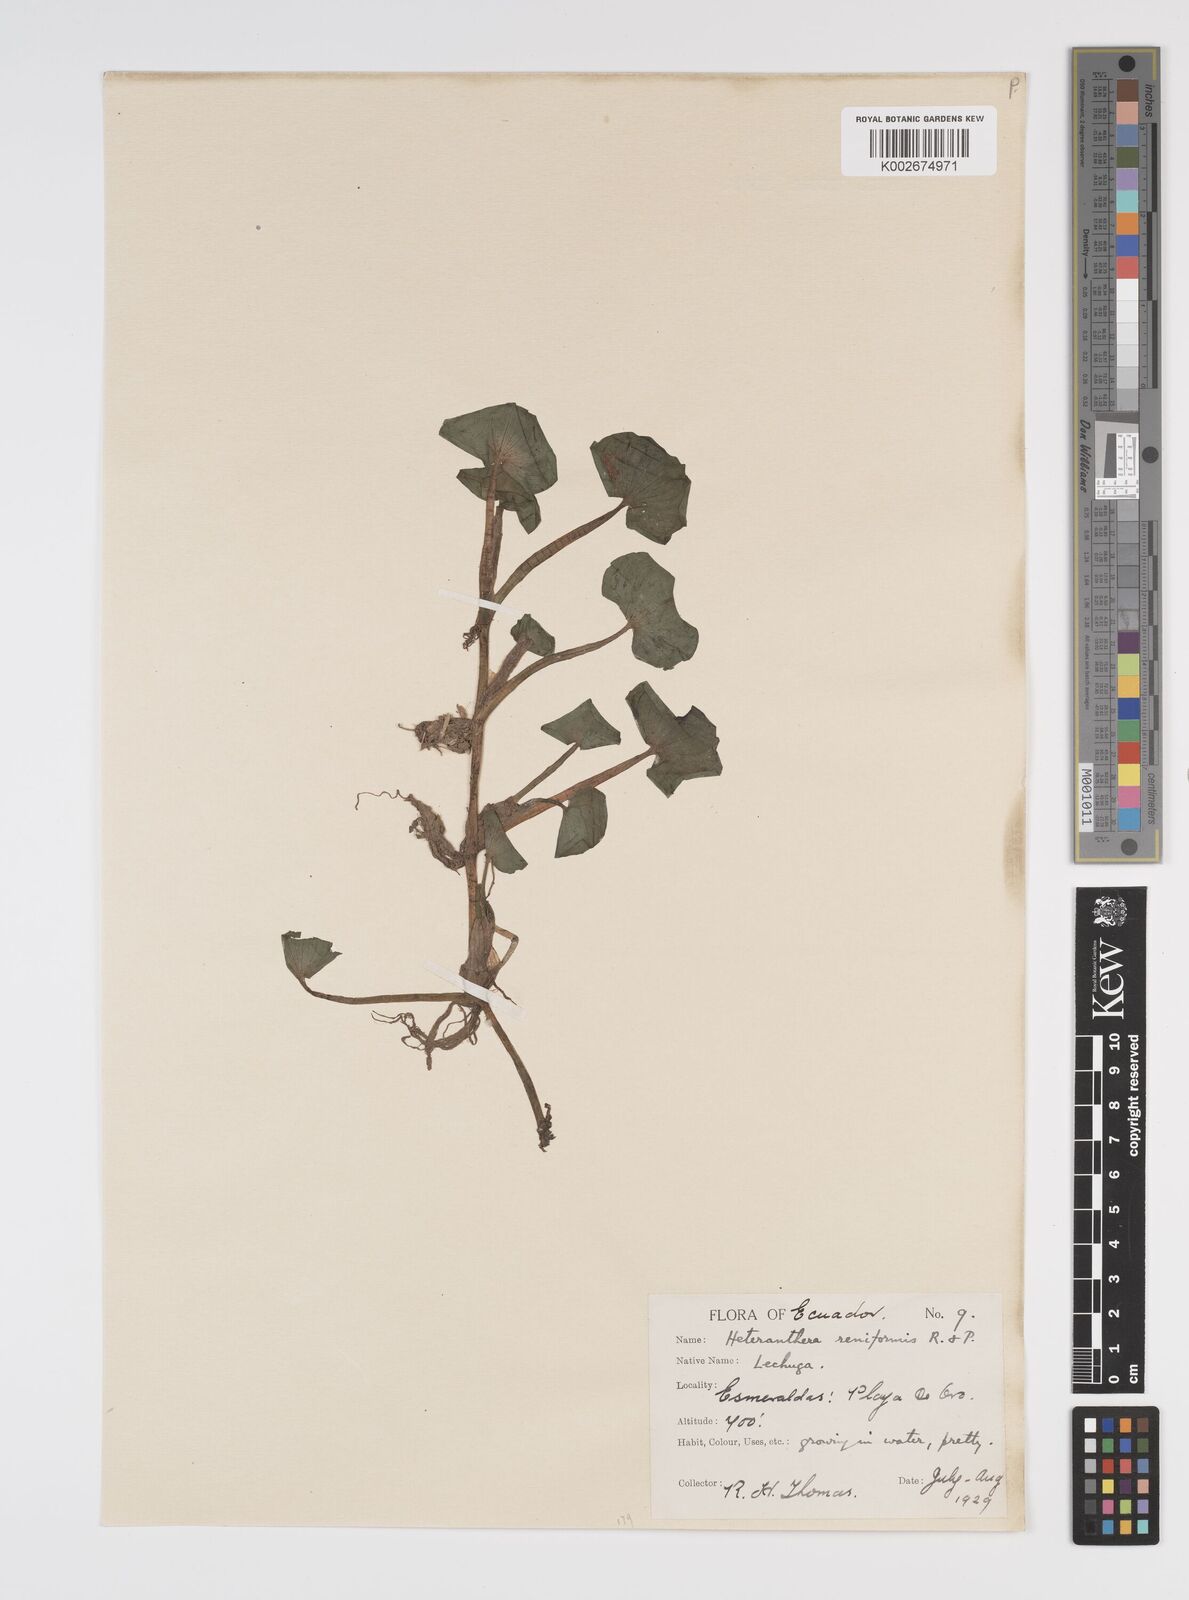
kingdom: Plantae
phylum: Tracheophyta
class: Liliopsida
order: Commelinales
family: Pontederiaceae
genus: Heteranthera
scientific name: Heteranthera reniformis
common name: Kidneyleaf mudplantain
